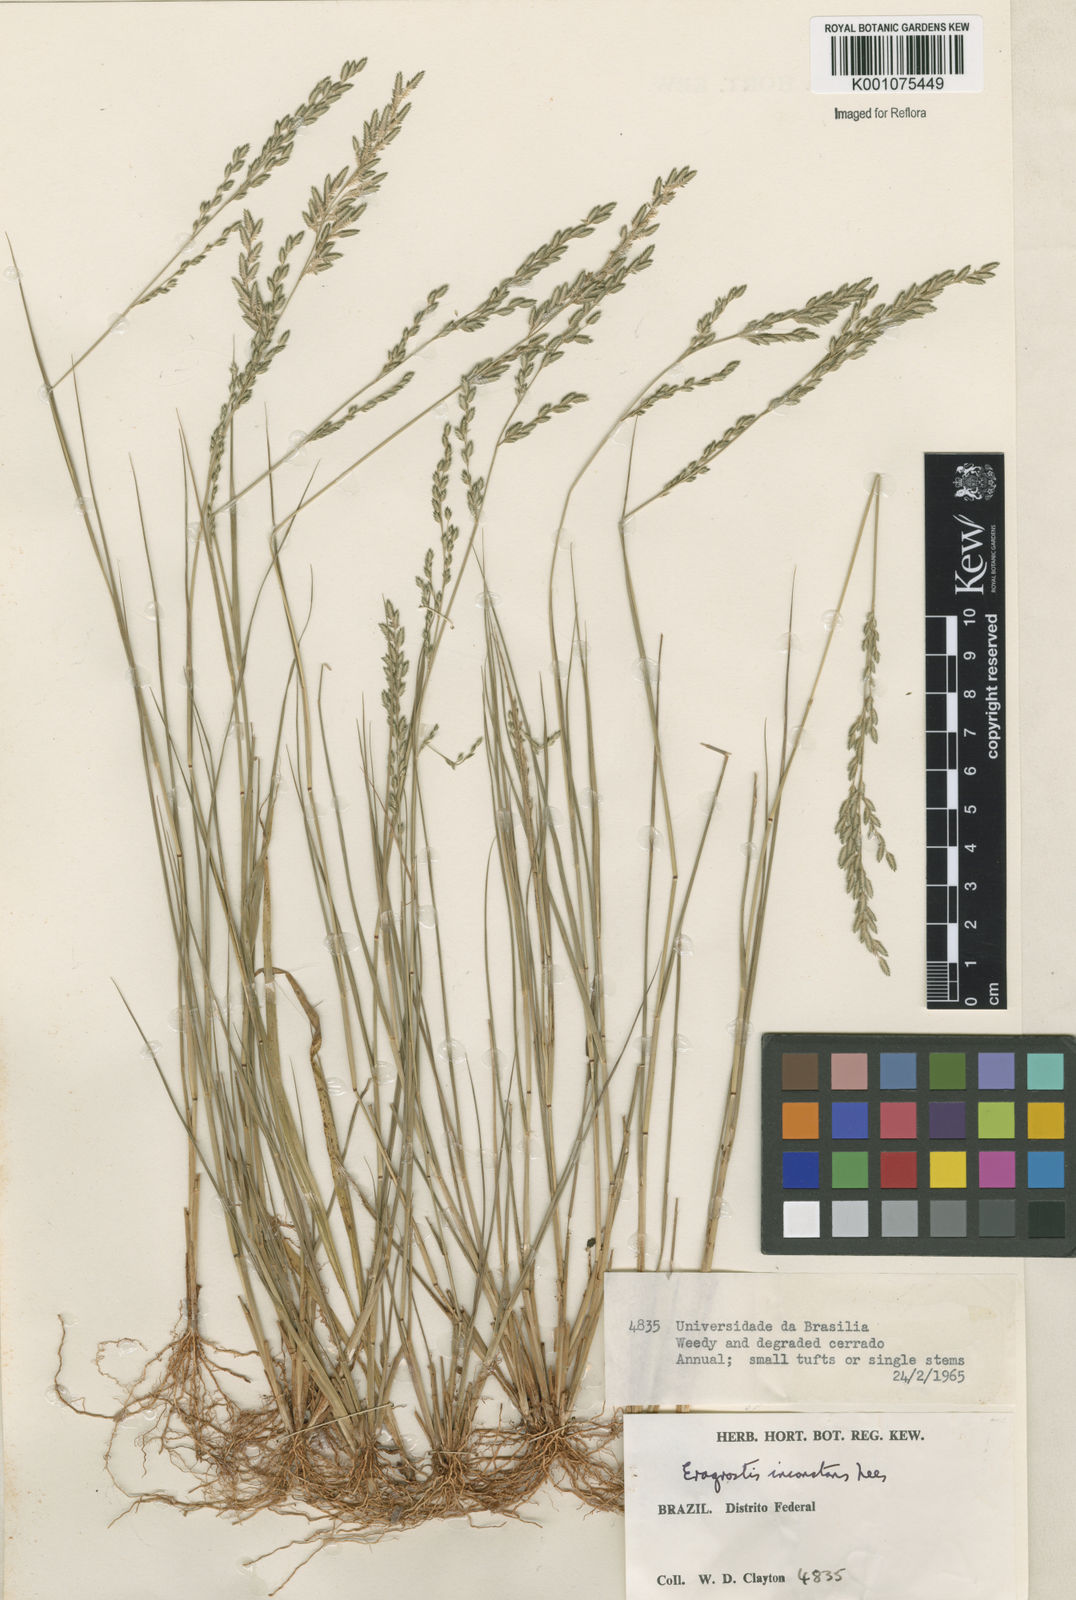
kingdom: Plantae
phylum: Tracheophyta
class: Liliopsida
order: Poales
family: Poaceae
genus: Eragrostis
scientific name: Eragrostis rufescens
